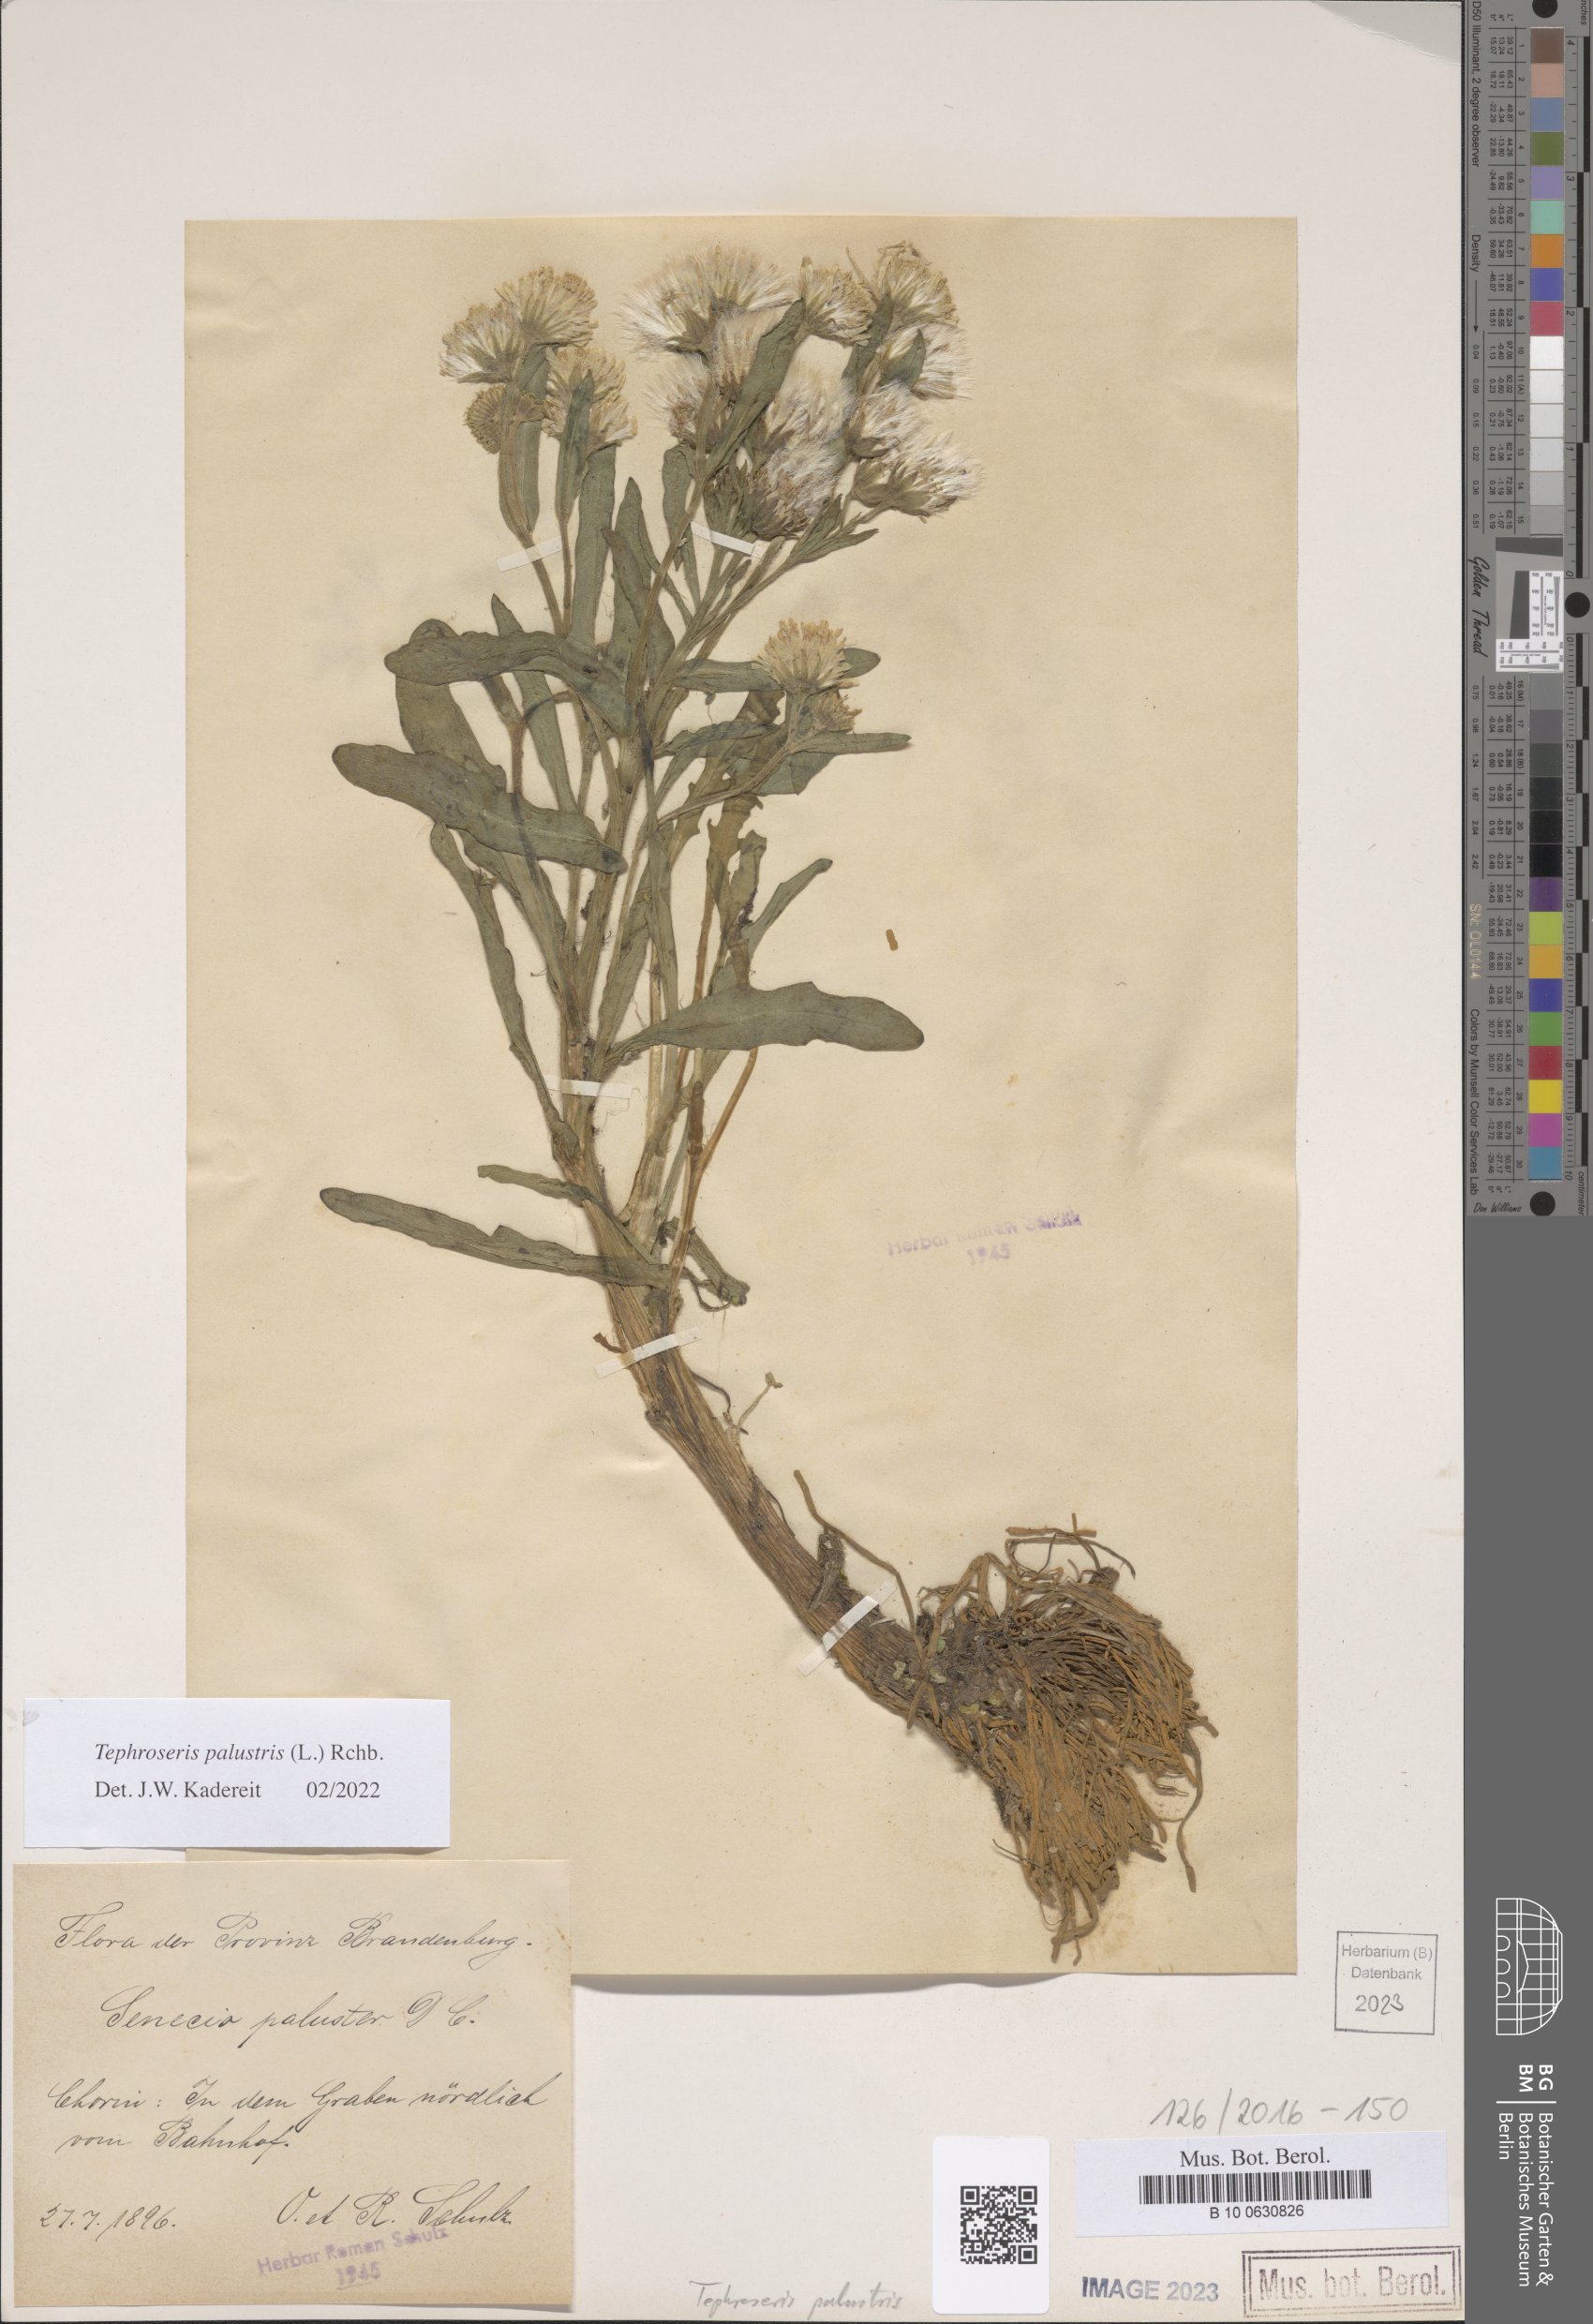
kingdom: Plantae
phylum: Tracheophyta
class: Magnoliopsida
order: Asterales
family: Asteraceae
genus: Tephroseris
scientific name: Tephroseris palustris
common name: Marsh fleawort
